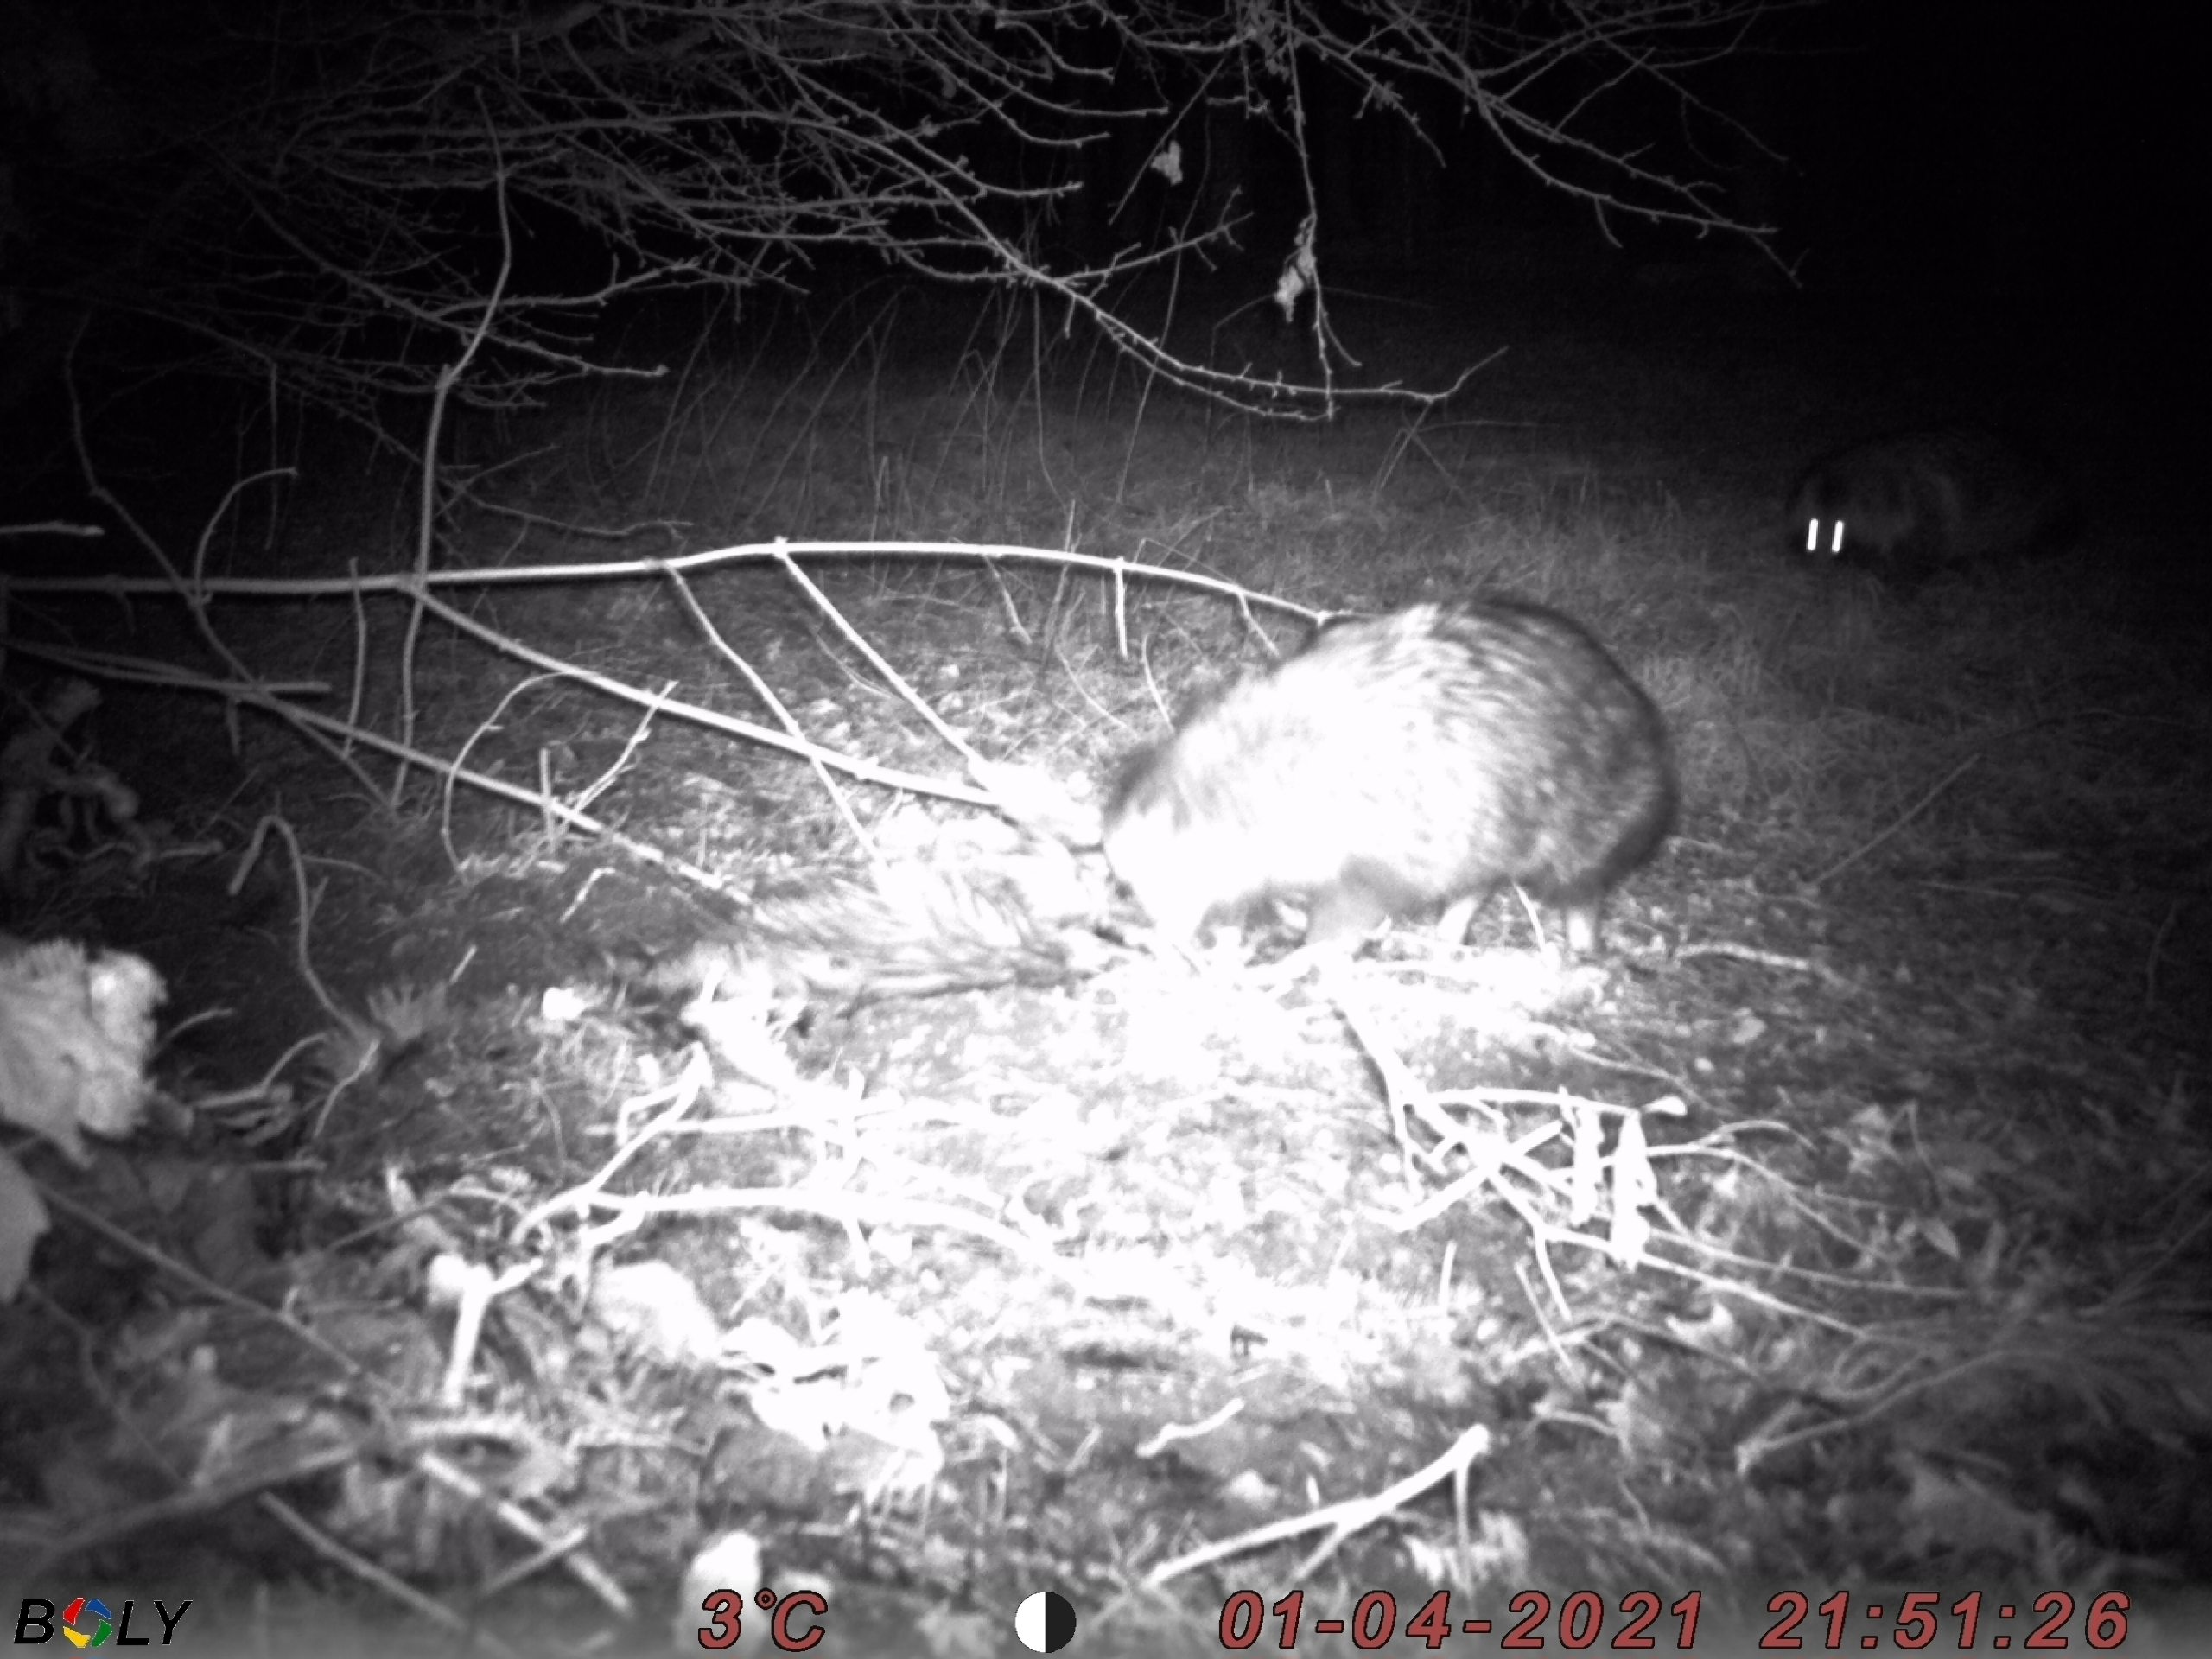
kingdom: Animalia
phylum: Chordata
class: Mammalia
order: Carnivora
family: Canidae
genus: Nyctereutes
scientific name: Nyctereutes procyonoides
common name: Mårhund
